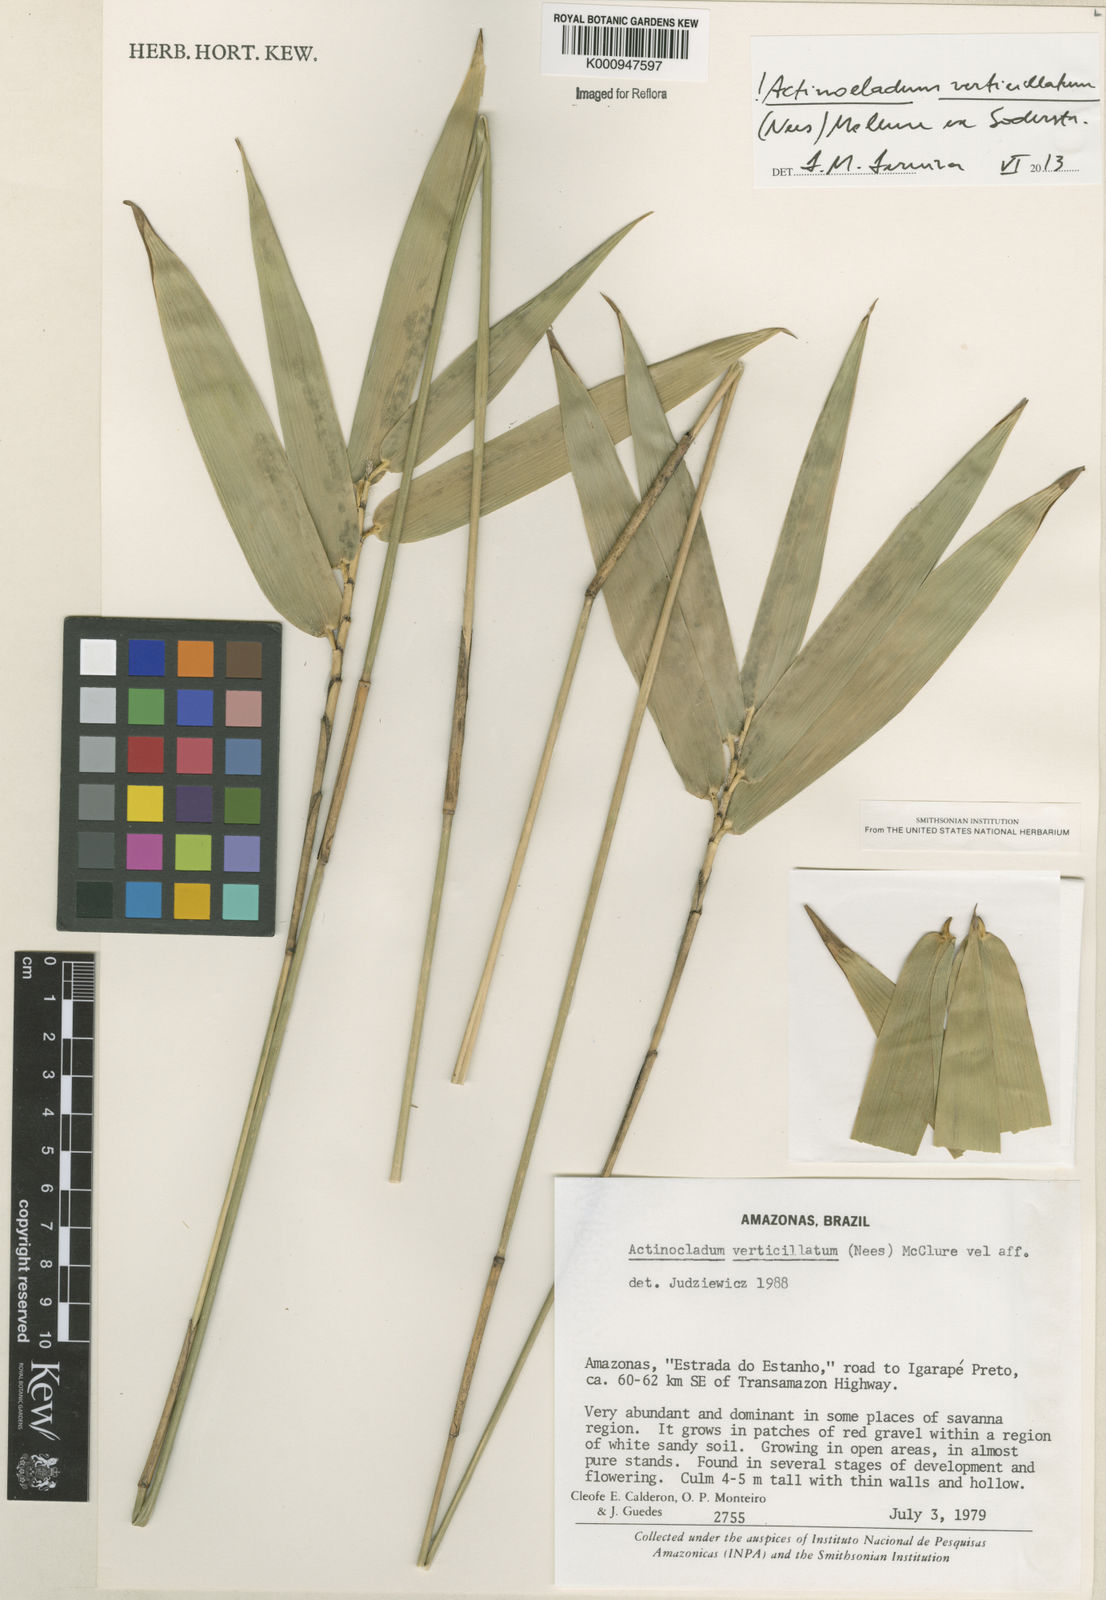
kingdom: Plantae
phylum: Tracheophyta
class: Liliopsida
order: Poales
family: Poaceae
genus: Actinocladum
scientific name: Actinocladum verticillatum
